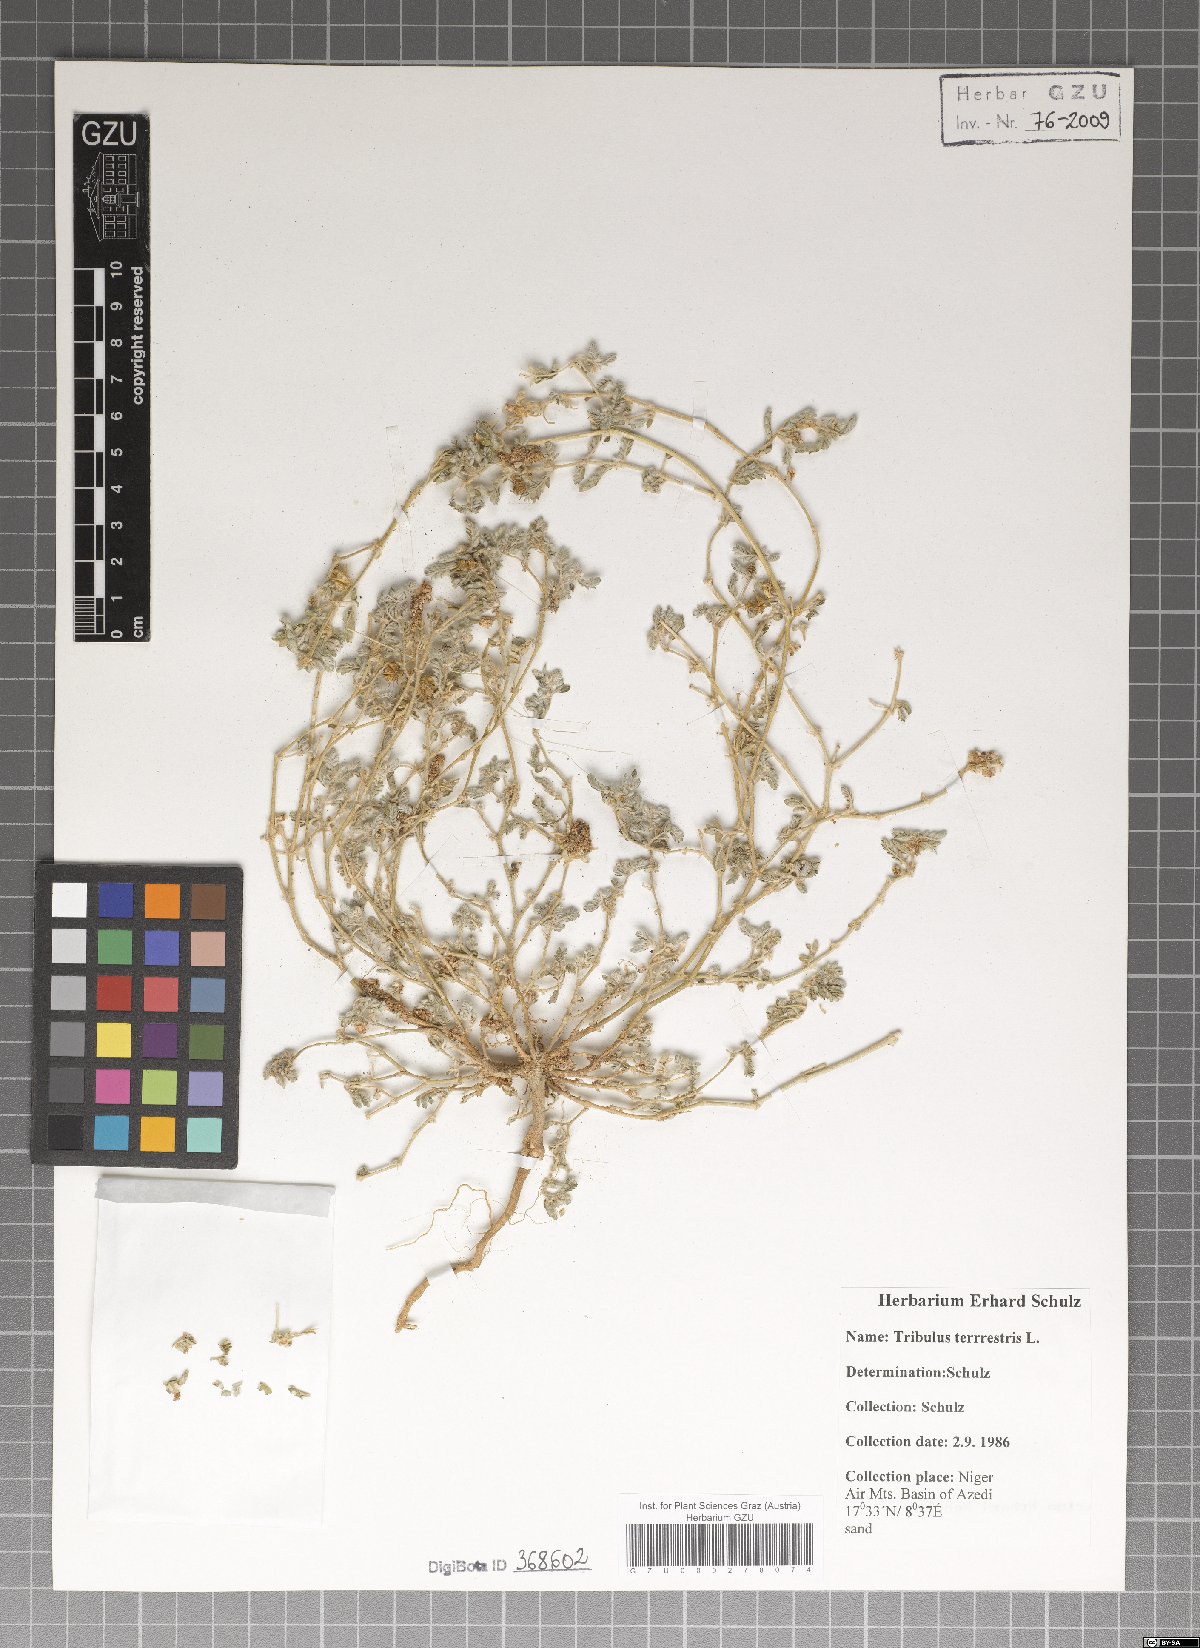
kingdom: Plantae
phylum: Tracheophyta
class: Magnoliopsida
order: Zygophyllales
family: Zygophyllaceae
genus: Tribulus
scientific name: Tribulus terrestris
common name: Puncturevine
